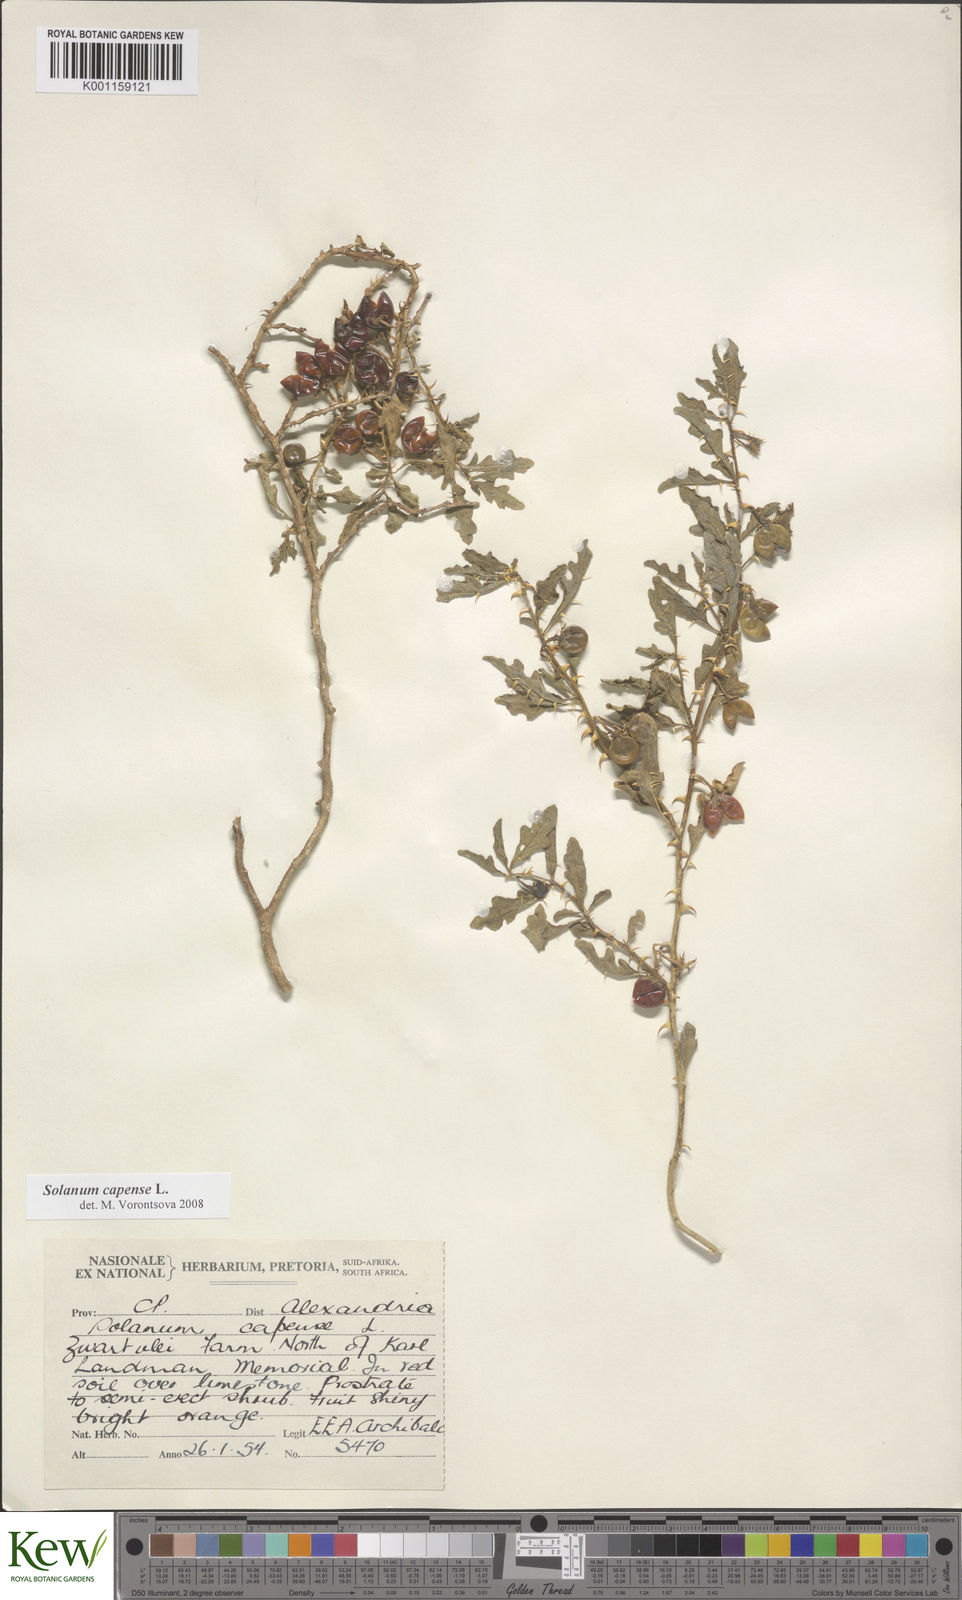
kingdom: Plantae
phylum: Tracheophyta
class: Magnoliopsida
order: Solanales
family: Solanaceae
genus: Solanum
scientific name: Solanum capense
